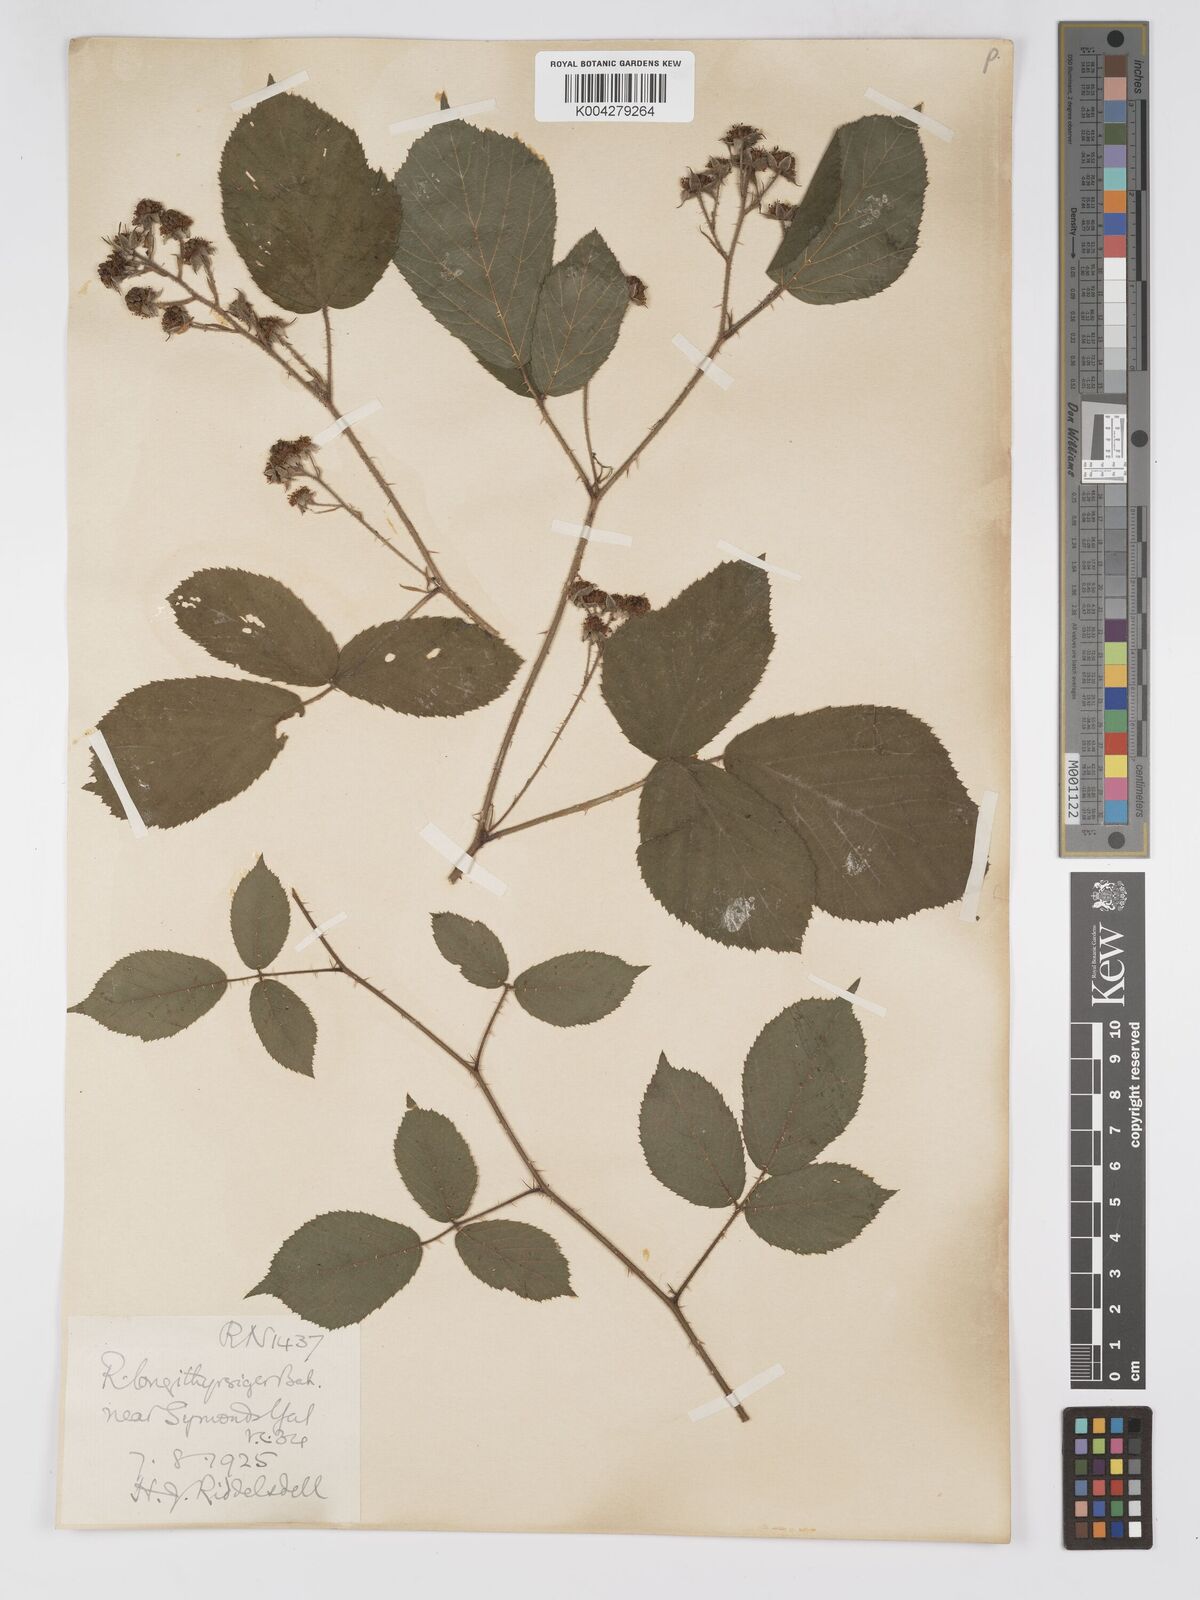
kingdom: Plantae
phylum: Tracheophyta
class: Magnoliopsida
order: Rosales
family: Rosaceae
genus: Rubus
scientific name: Rubus longithyrsiger
